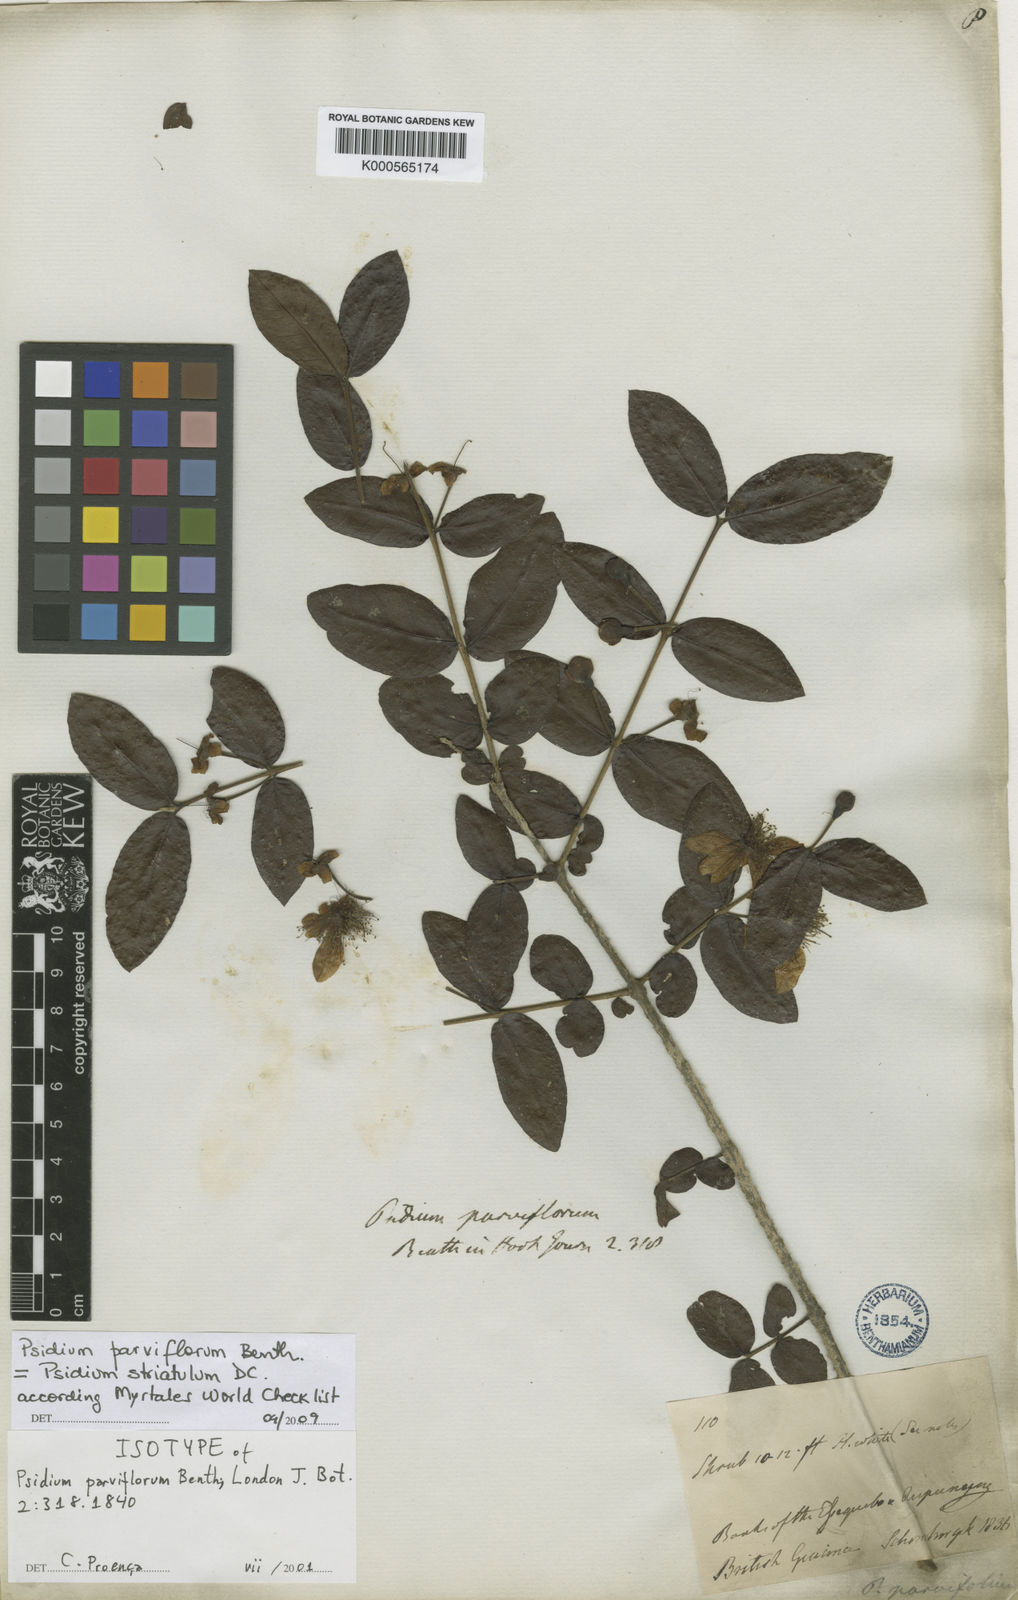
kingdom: Plantae
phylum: Tracheophyta
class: Magnoliopsida
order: Myrtales
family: Myrtaceae
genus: Psidium
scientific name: Psidium striatulum
